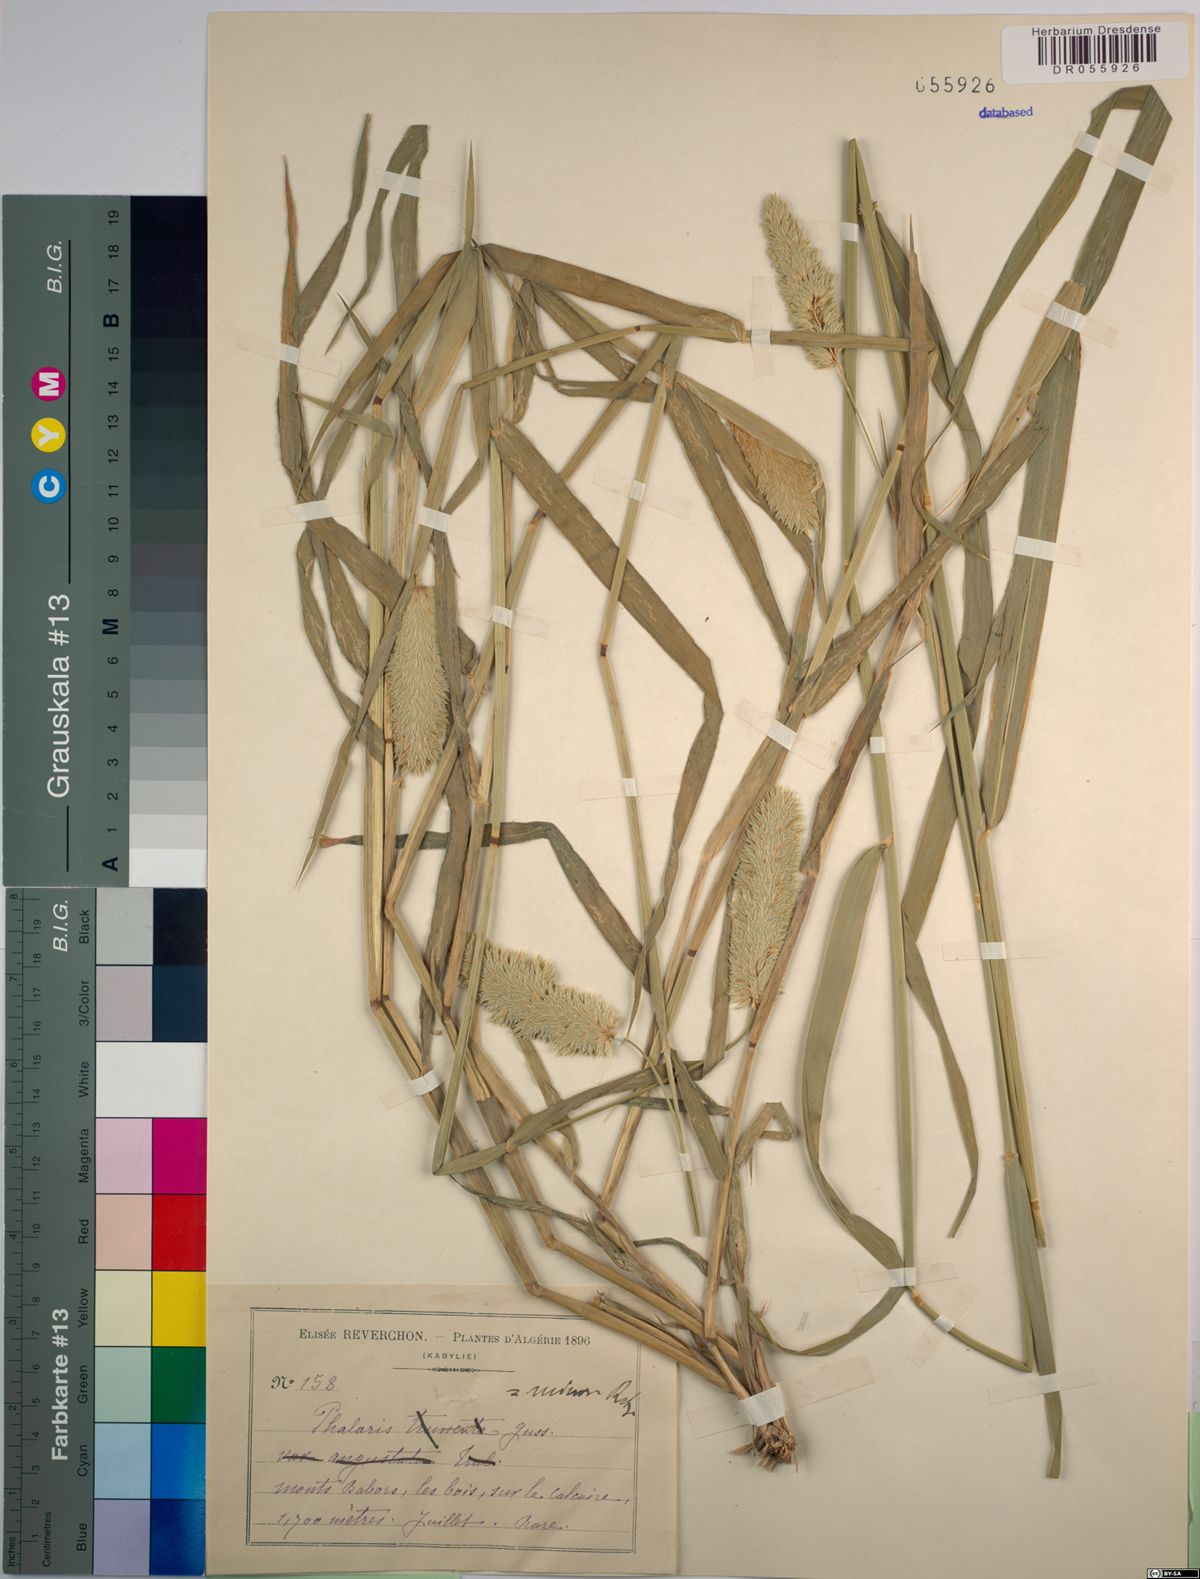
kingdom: Plantae
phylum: Tracheophyta
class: Liliopsida
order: Poales
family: Poaceae
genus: Phalaris
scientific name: Phalaris minor
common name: Littleseed canarygrass
